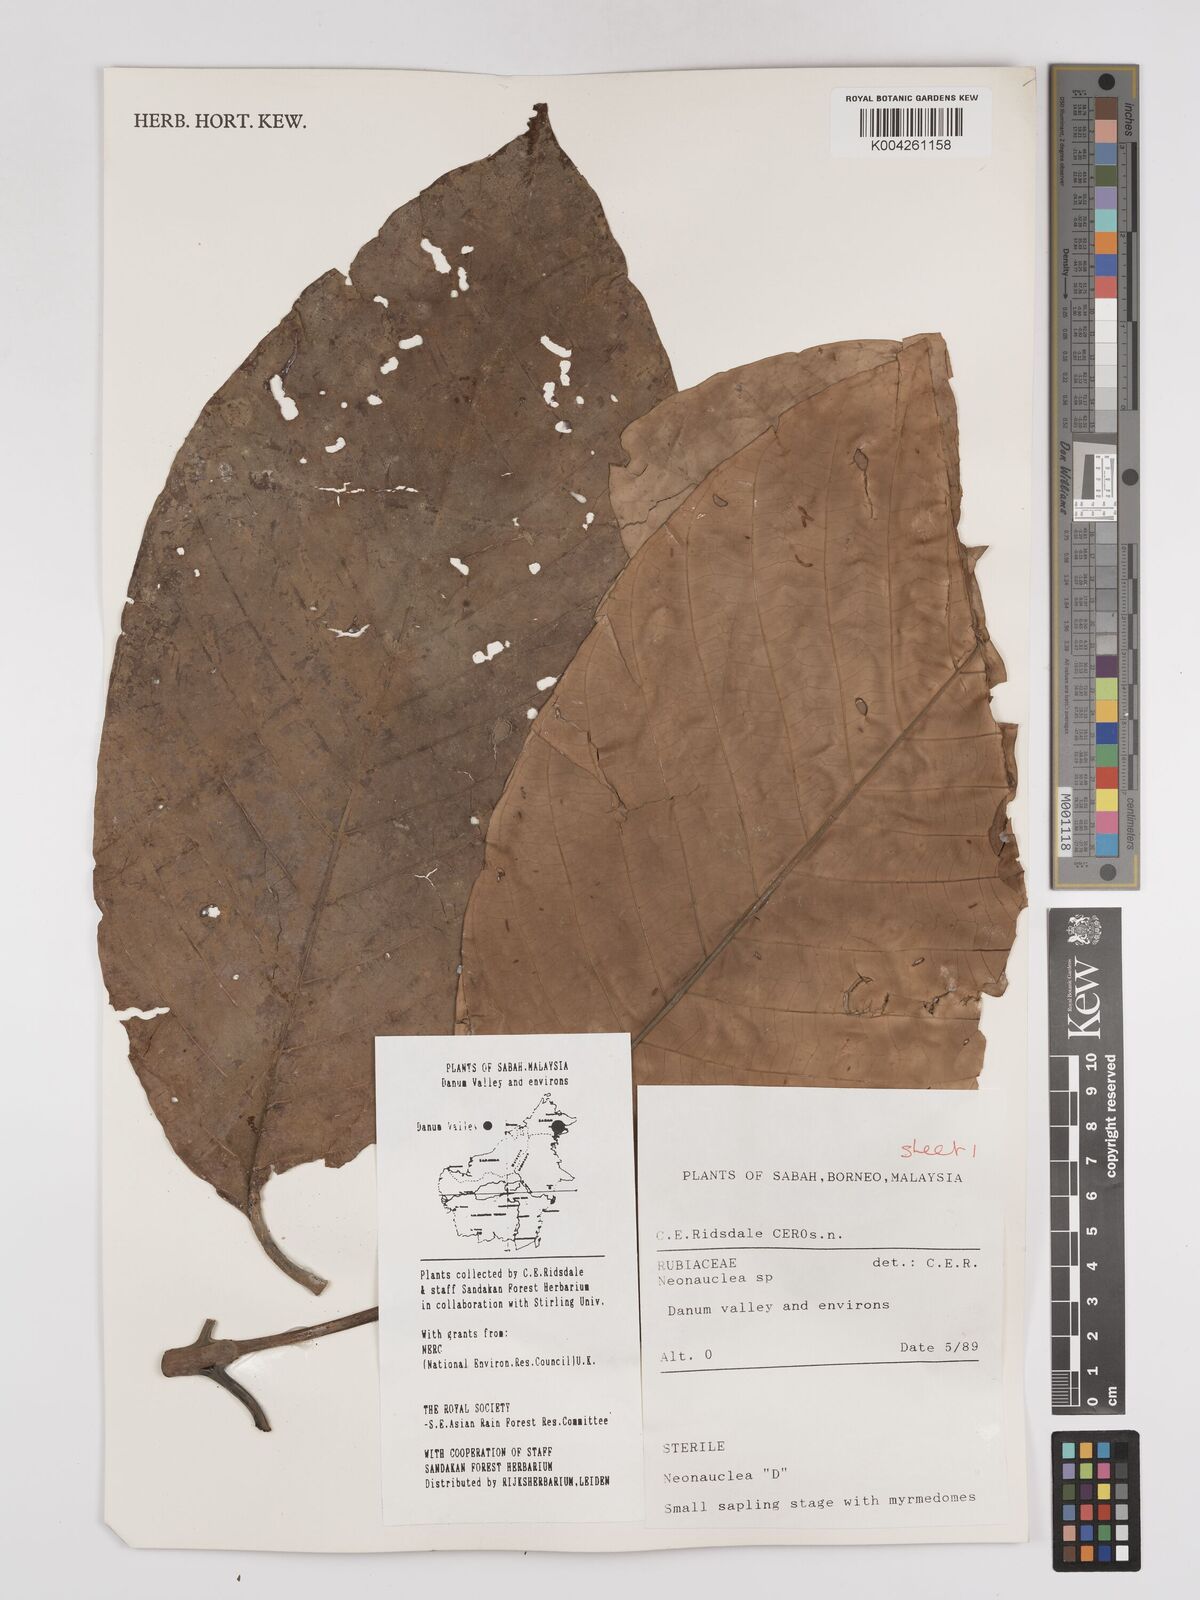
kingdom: Plantae
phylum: Tracheophyta
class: Magnoliopsida
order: Gentianales
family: Rubiaceae
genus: Neonauclea
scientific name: Neonauclea
